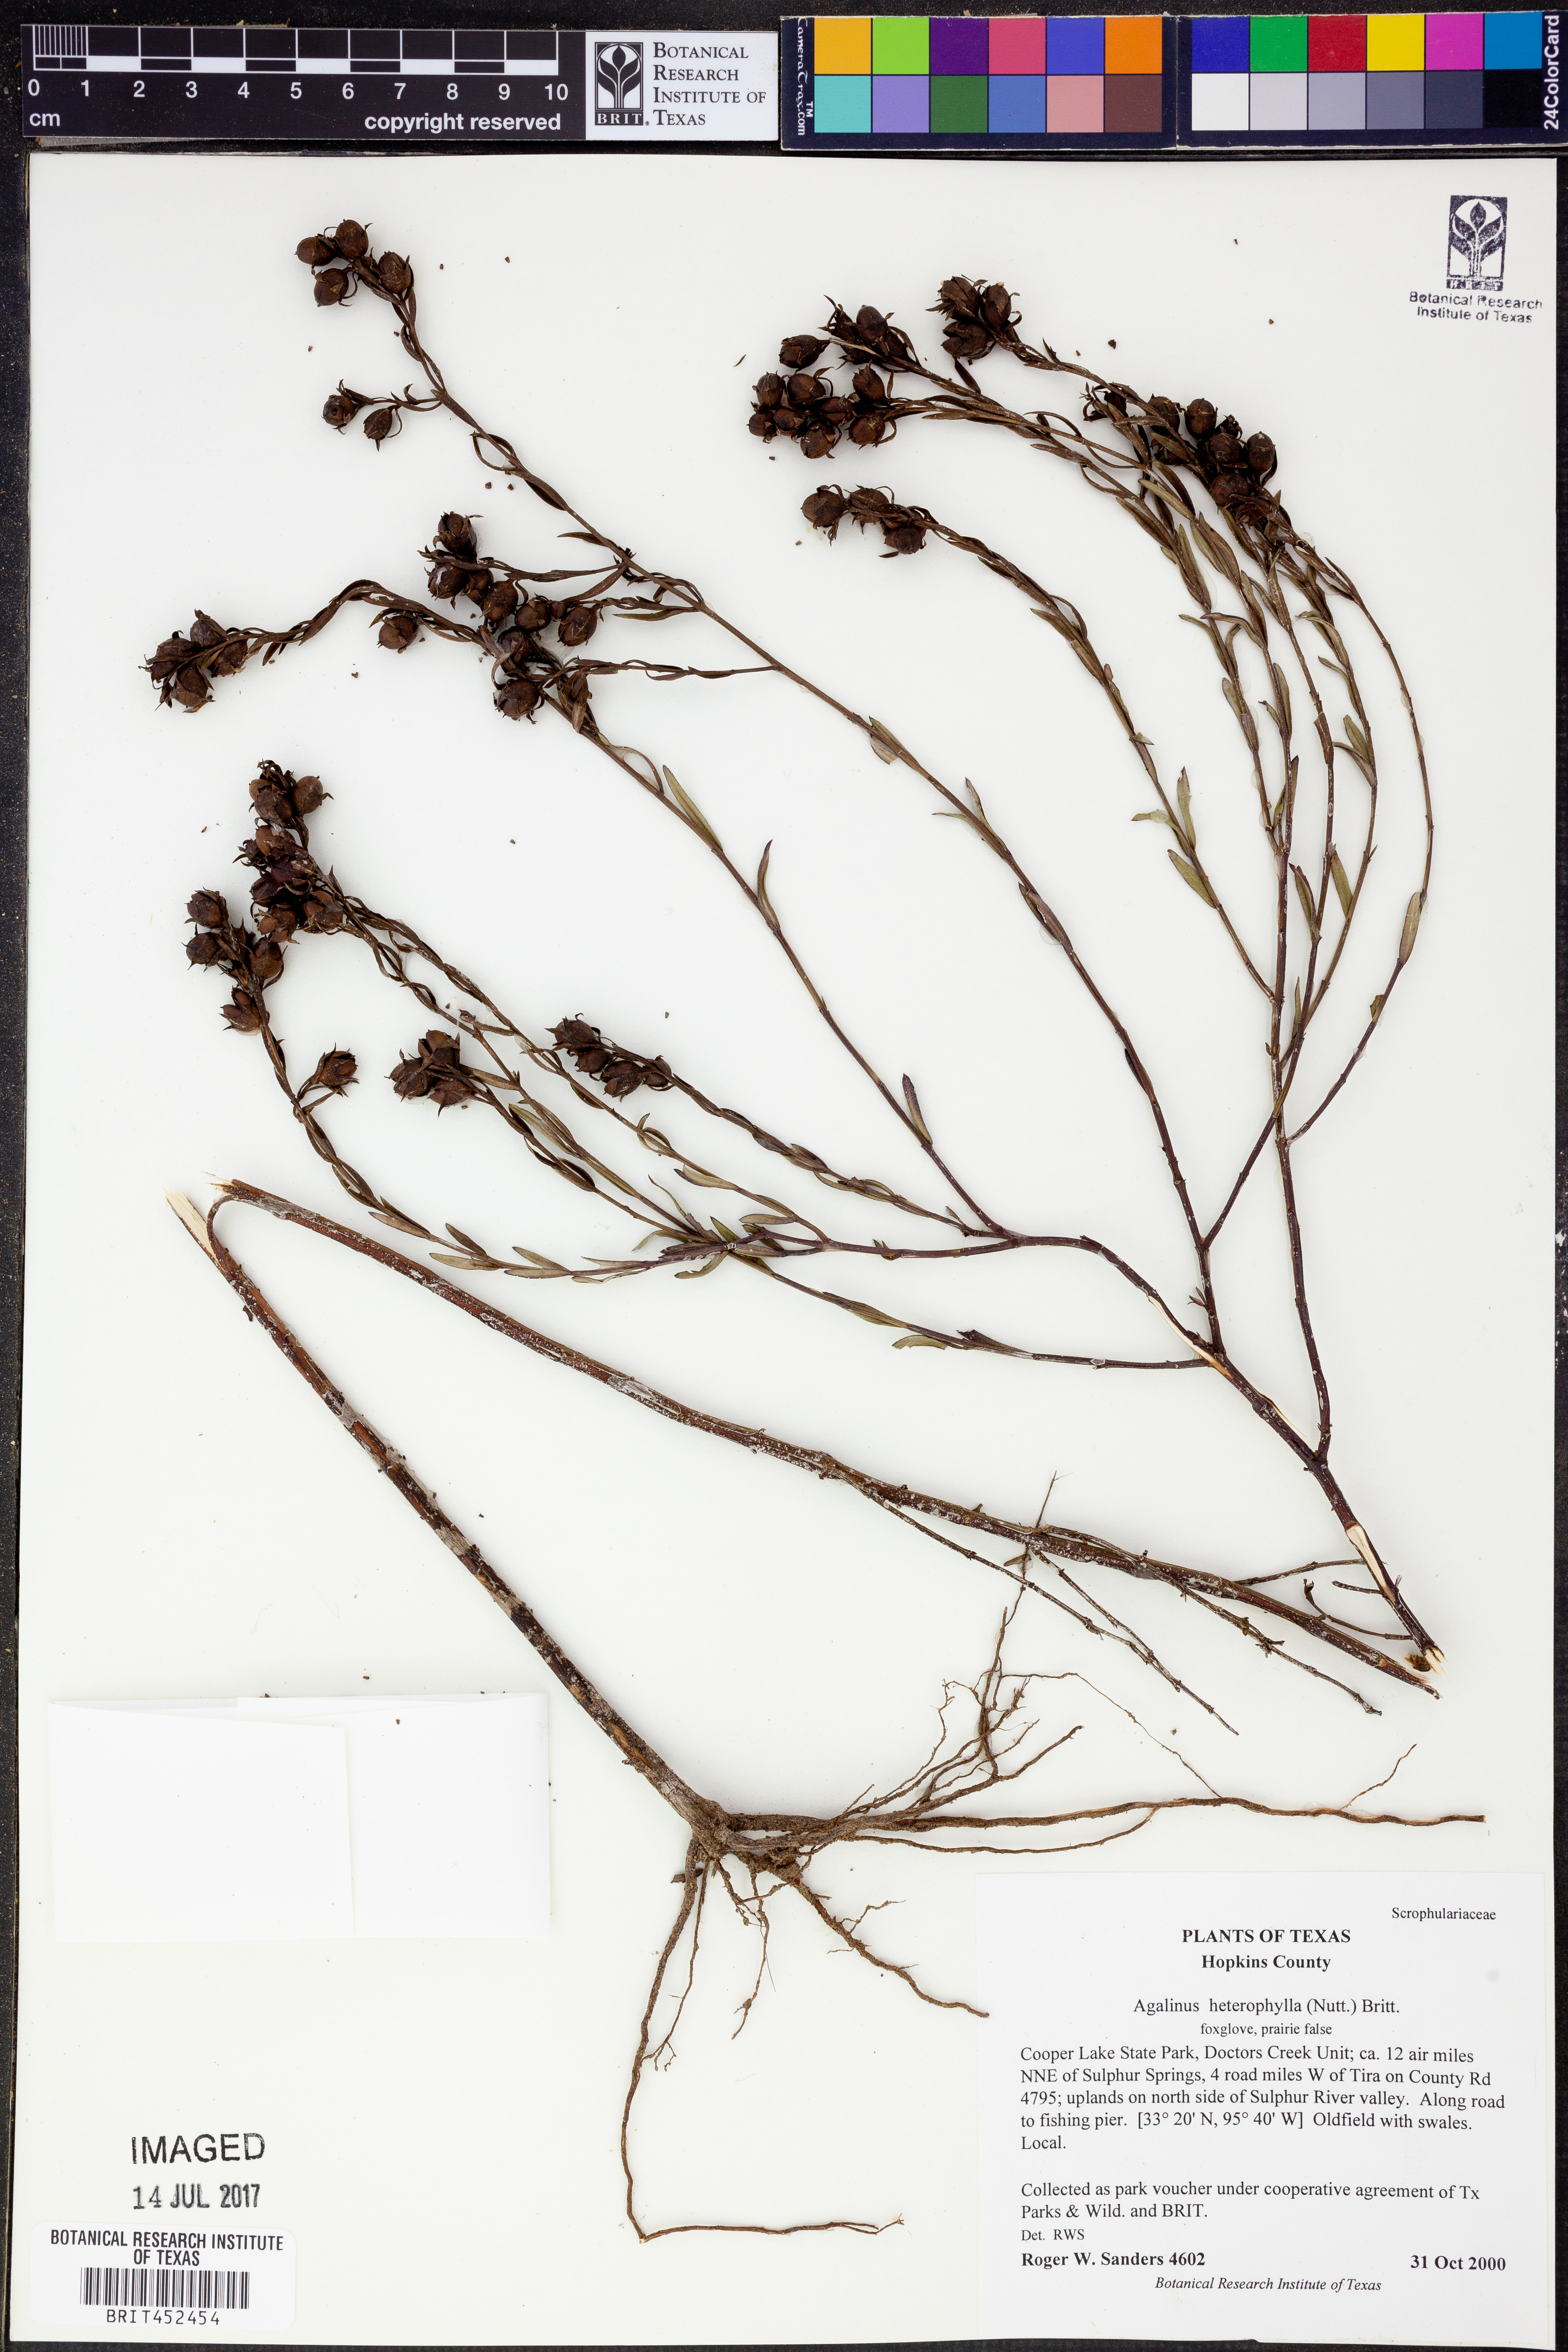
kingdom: Plantae
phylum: Tracheophyta
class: Magnoliopsida
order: Lamiales
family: Orobanchaceae
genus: Agalinis
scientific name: Agalinis heterophylla
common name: Prairie agalinis
